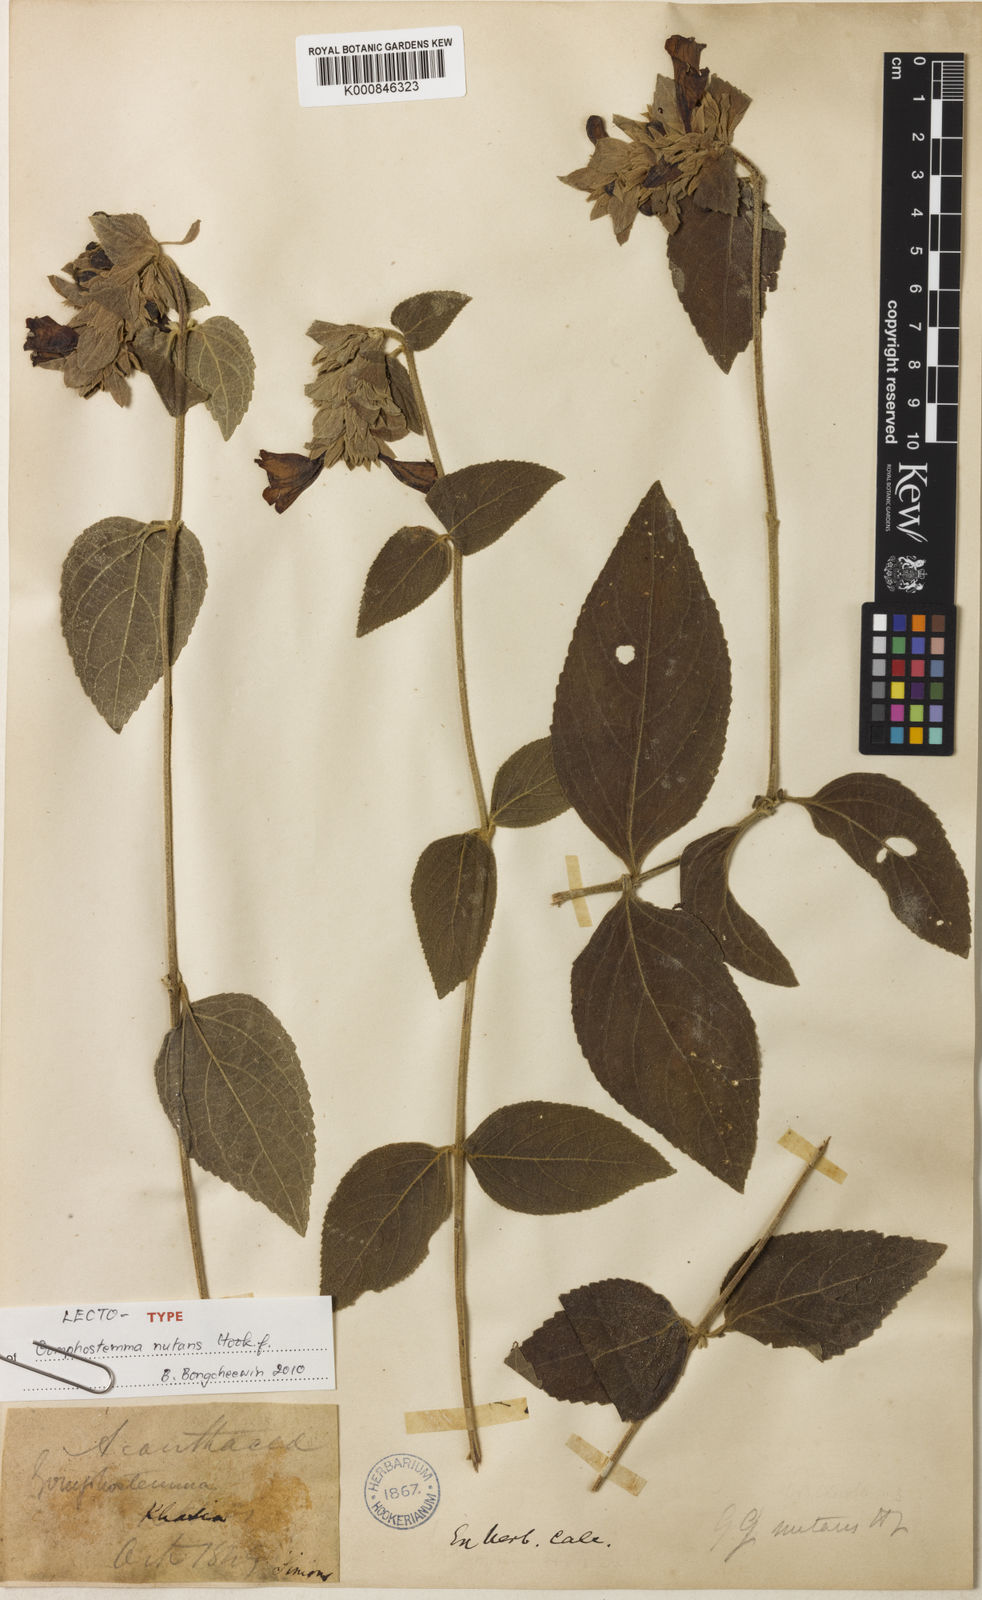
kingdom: Plantae
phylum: Tracheophyta
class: Magnoliopsida
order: Lamiales
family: Lamiaceae
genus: Gomphostemma
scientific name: Gomphostemma nutans
